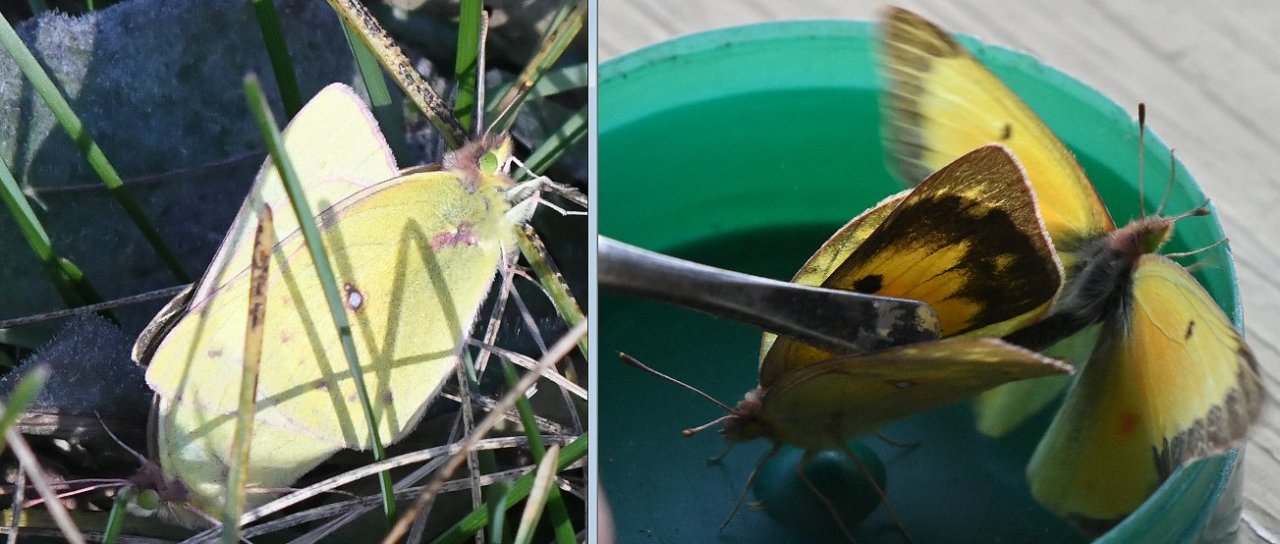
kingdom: Animalia
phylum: Arthropoda
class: Insecta
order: Lepidoptera
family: Pieridae
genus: Colias
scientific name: Colias eurytheme
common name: Orange Sulphur
